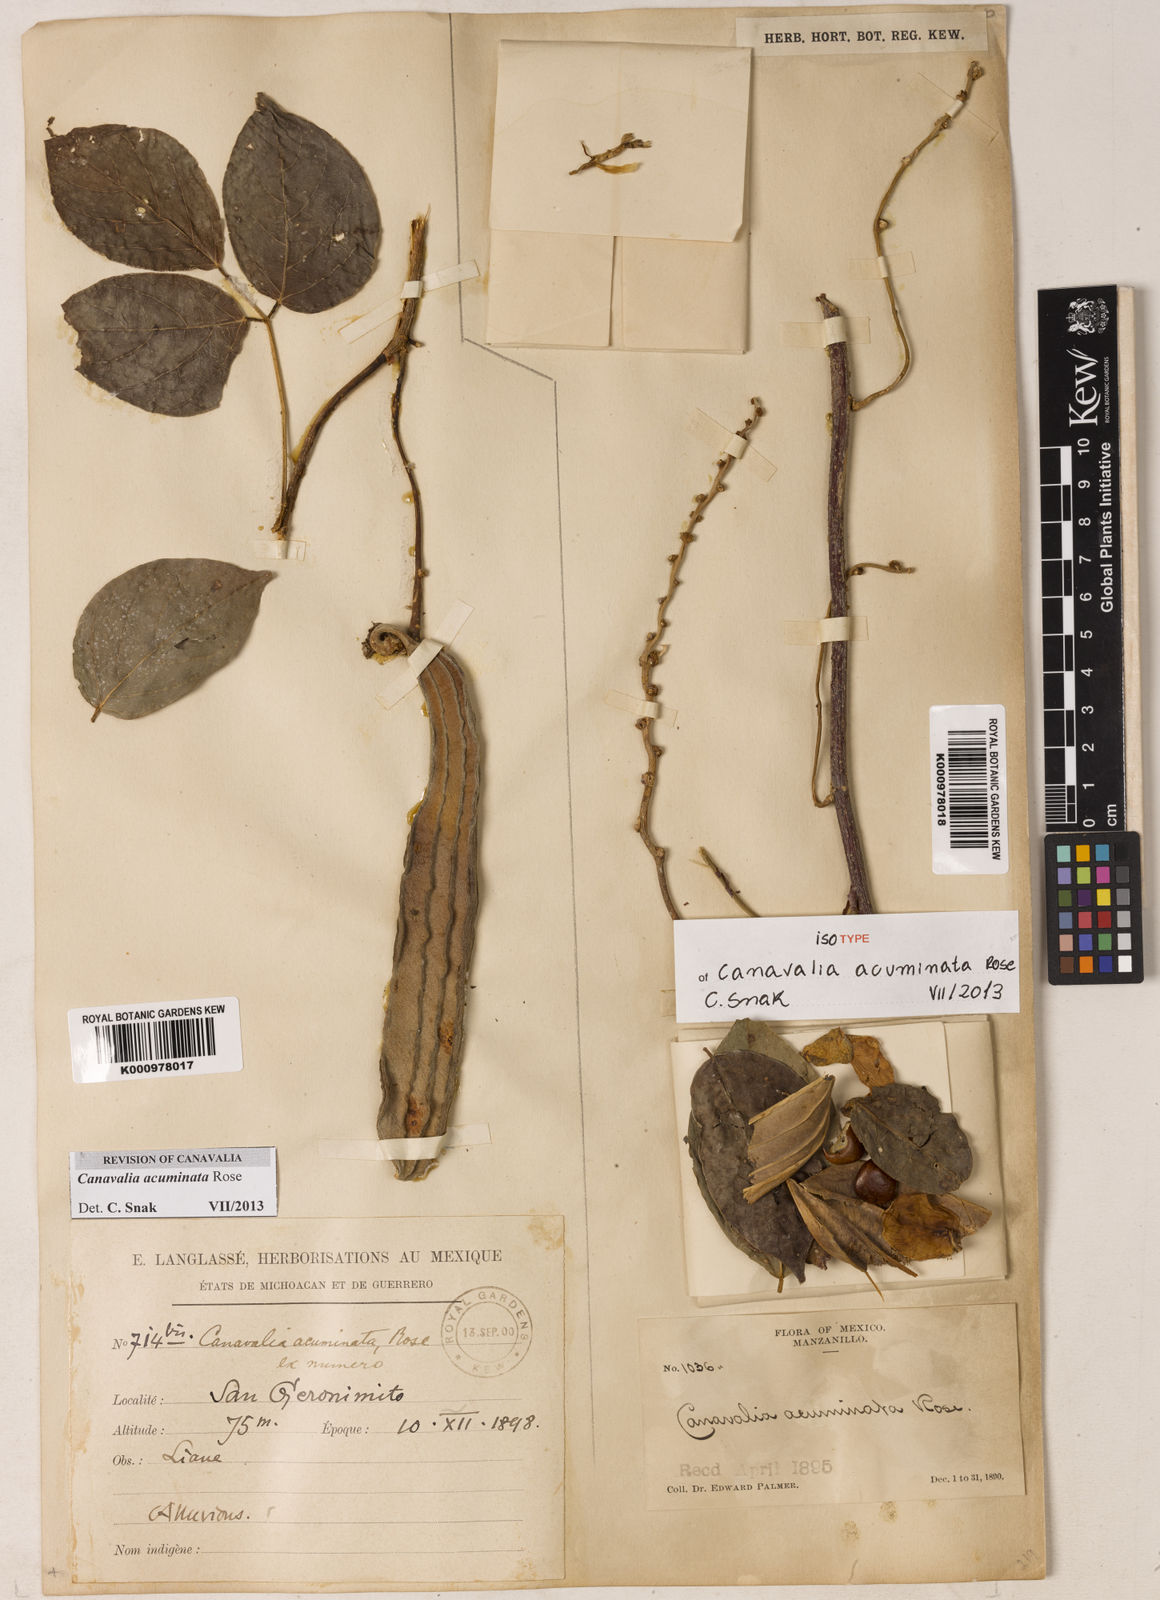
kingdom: Plantae
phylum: Tracheophyta
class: Magnoliopsida
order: Fabales
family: Fabaceae
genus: Canavalia
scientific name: Canavalia acuminata
